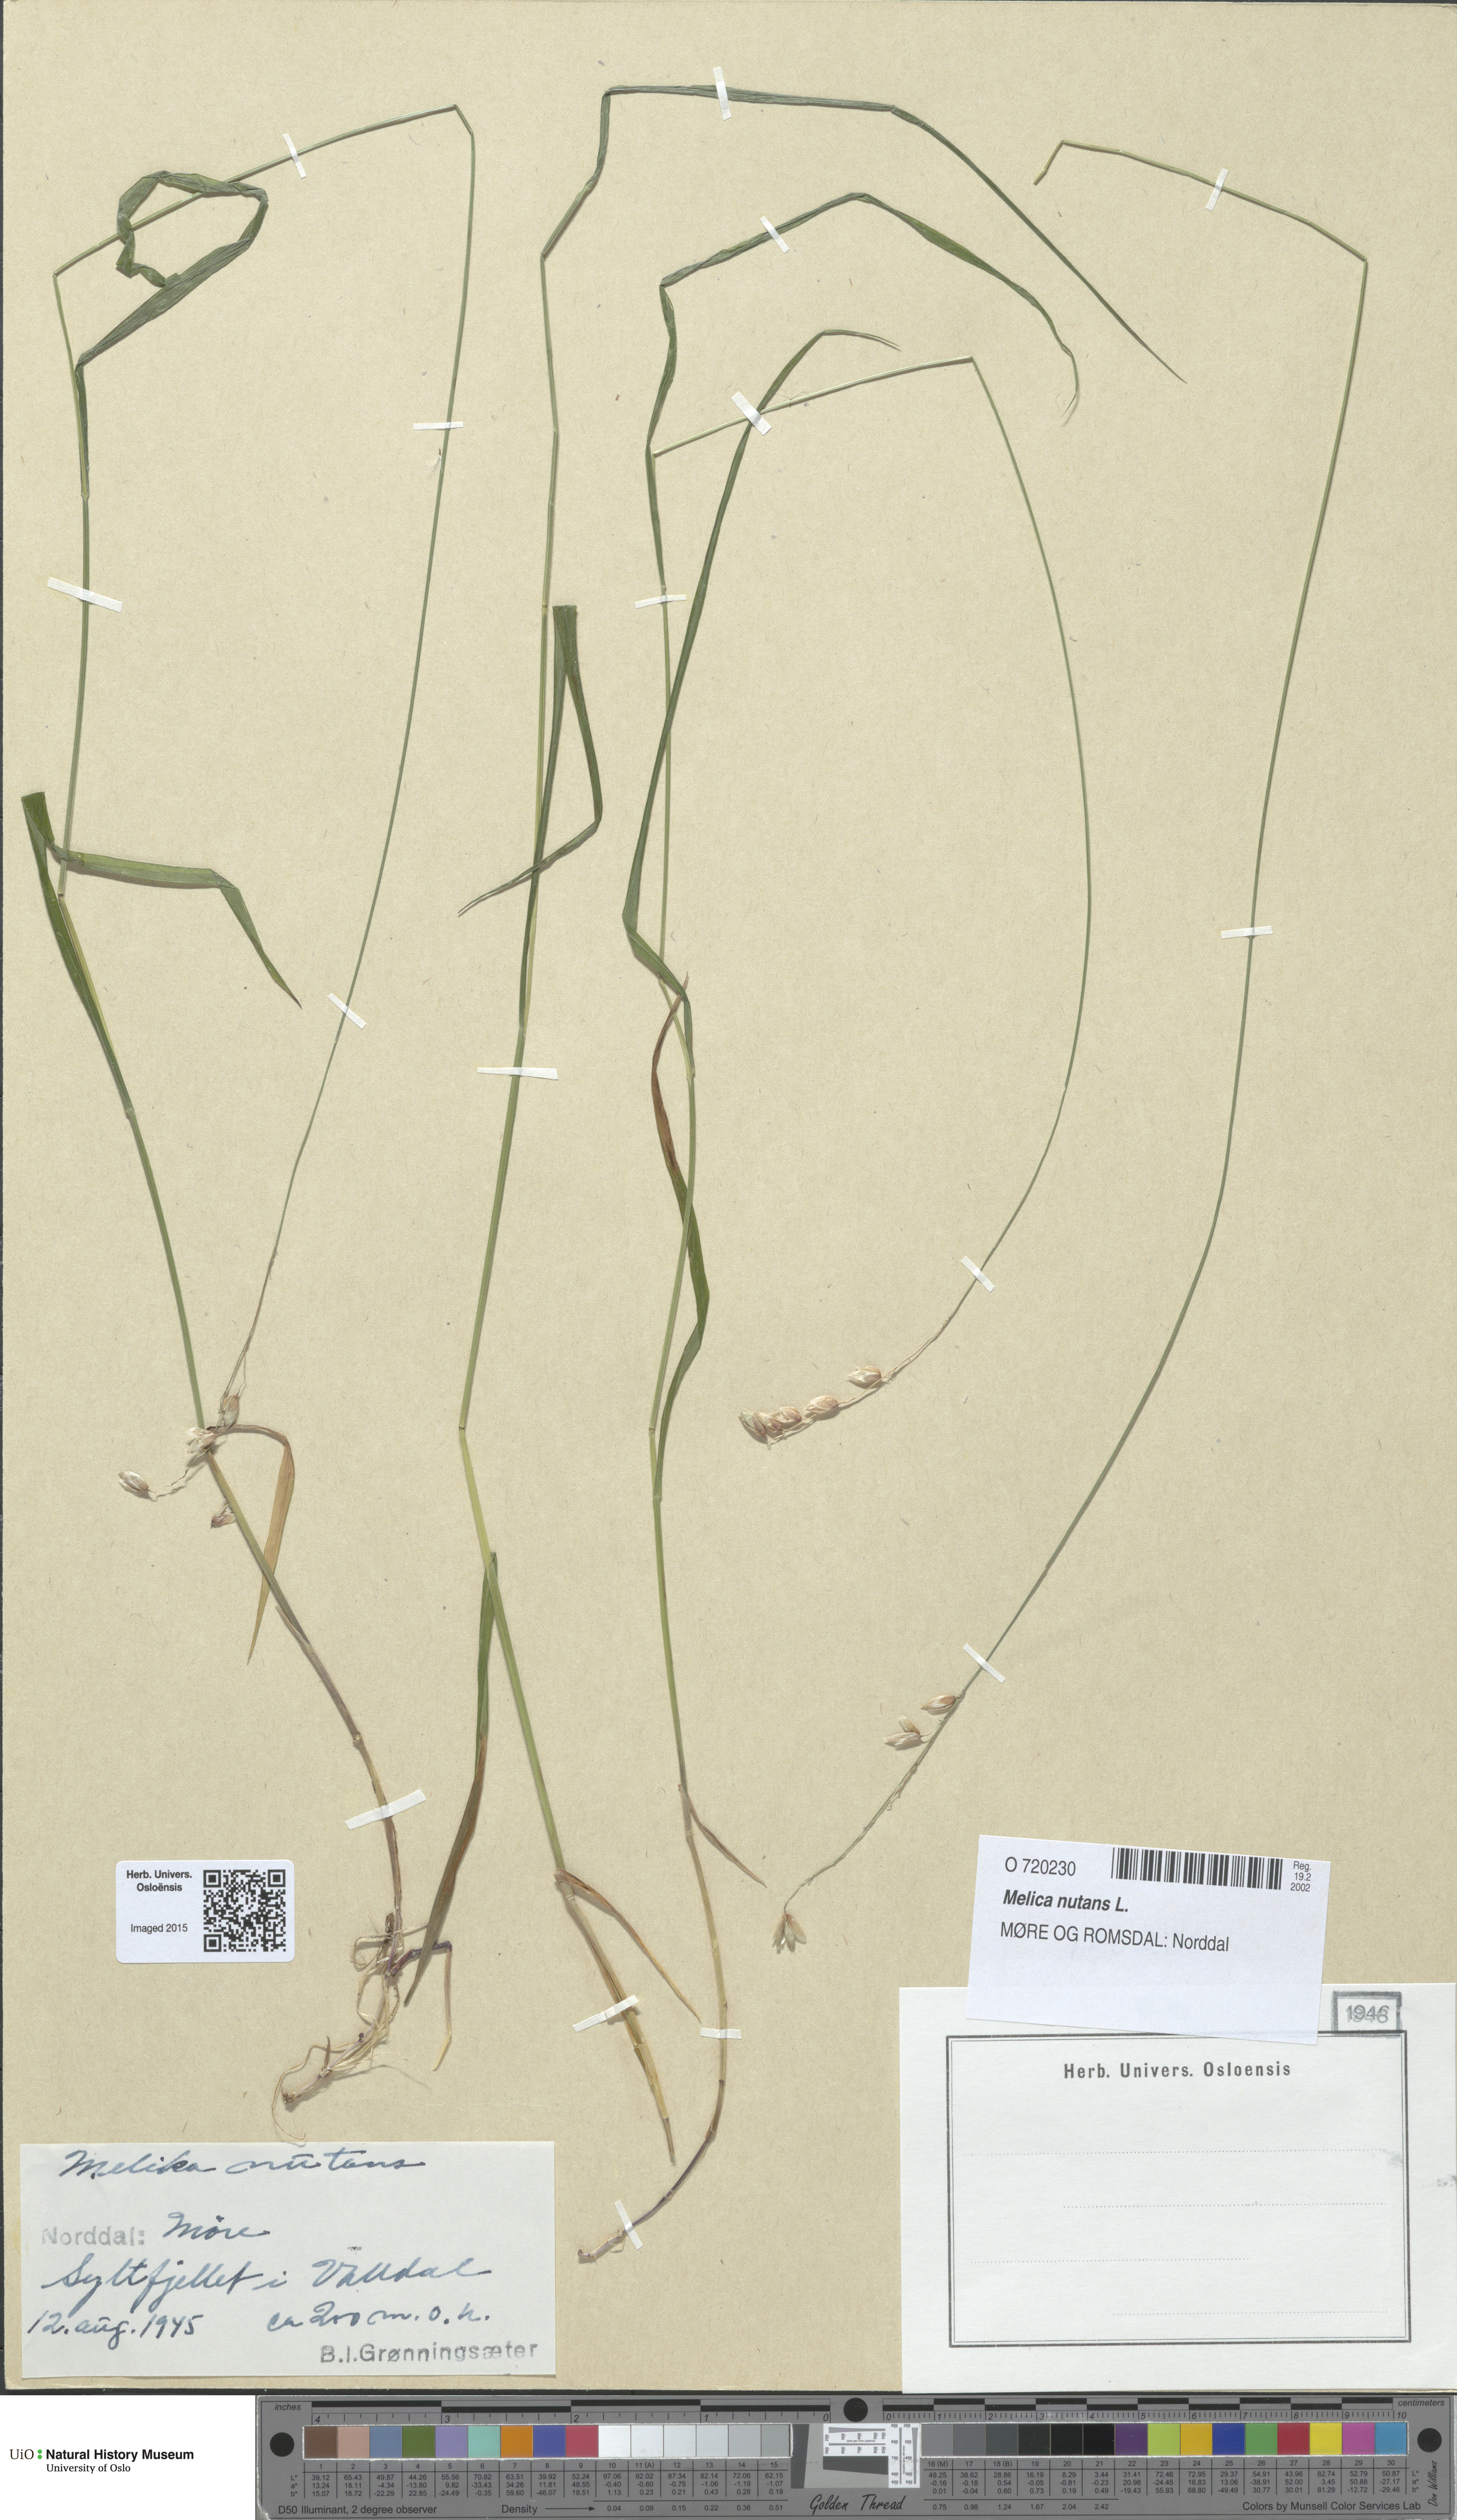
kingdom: Plantae
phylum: Tracheophyta
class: Liliopsida
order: Poales
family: Poaceae
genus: Melica
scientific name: Melica nutans
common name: Mountain melick
